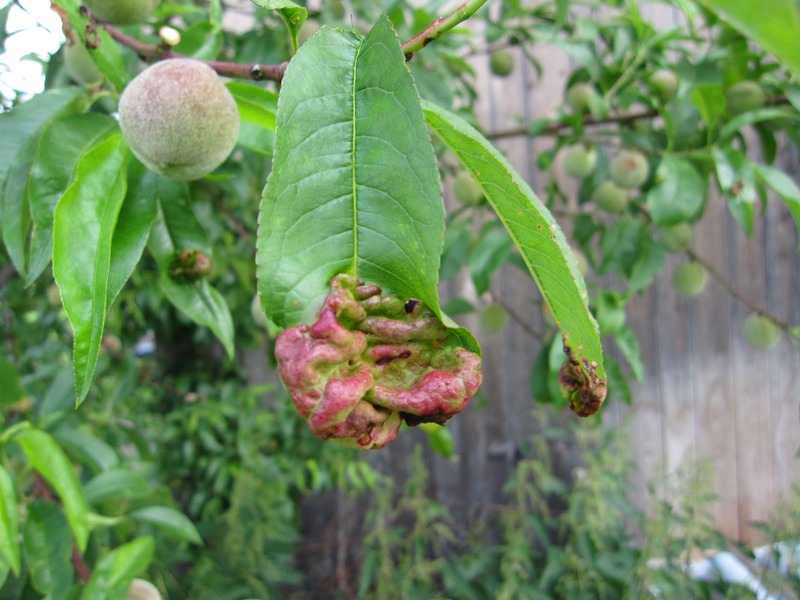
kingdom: Fungi
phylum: Ascomycota
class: Taphrinomycetes
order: Taphrinales
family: Taphrinaceae
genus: Taphrina
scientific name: Taphrina deformans
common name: Peach leaf curl
